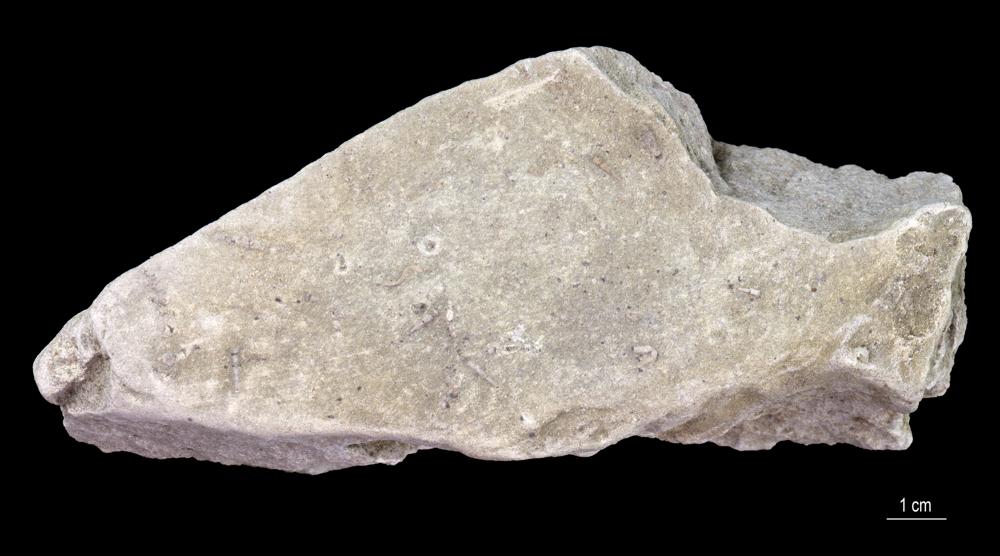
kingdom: Animalia
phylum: Annelida
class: Polychaeta
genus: Volborthella
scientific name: Volborthella tenuis
